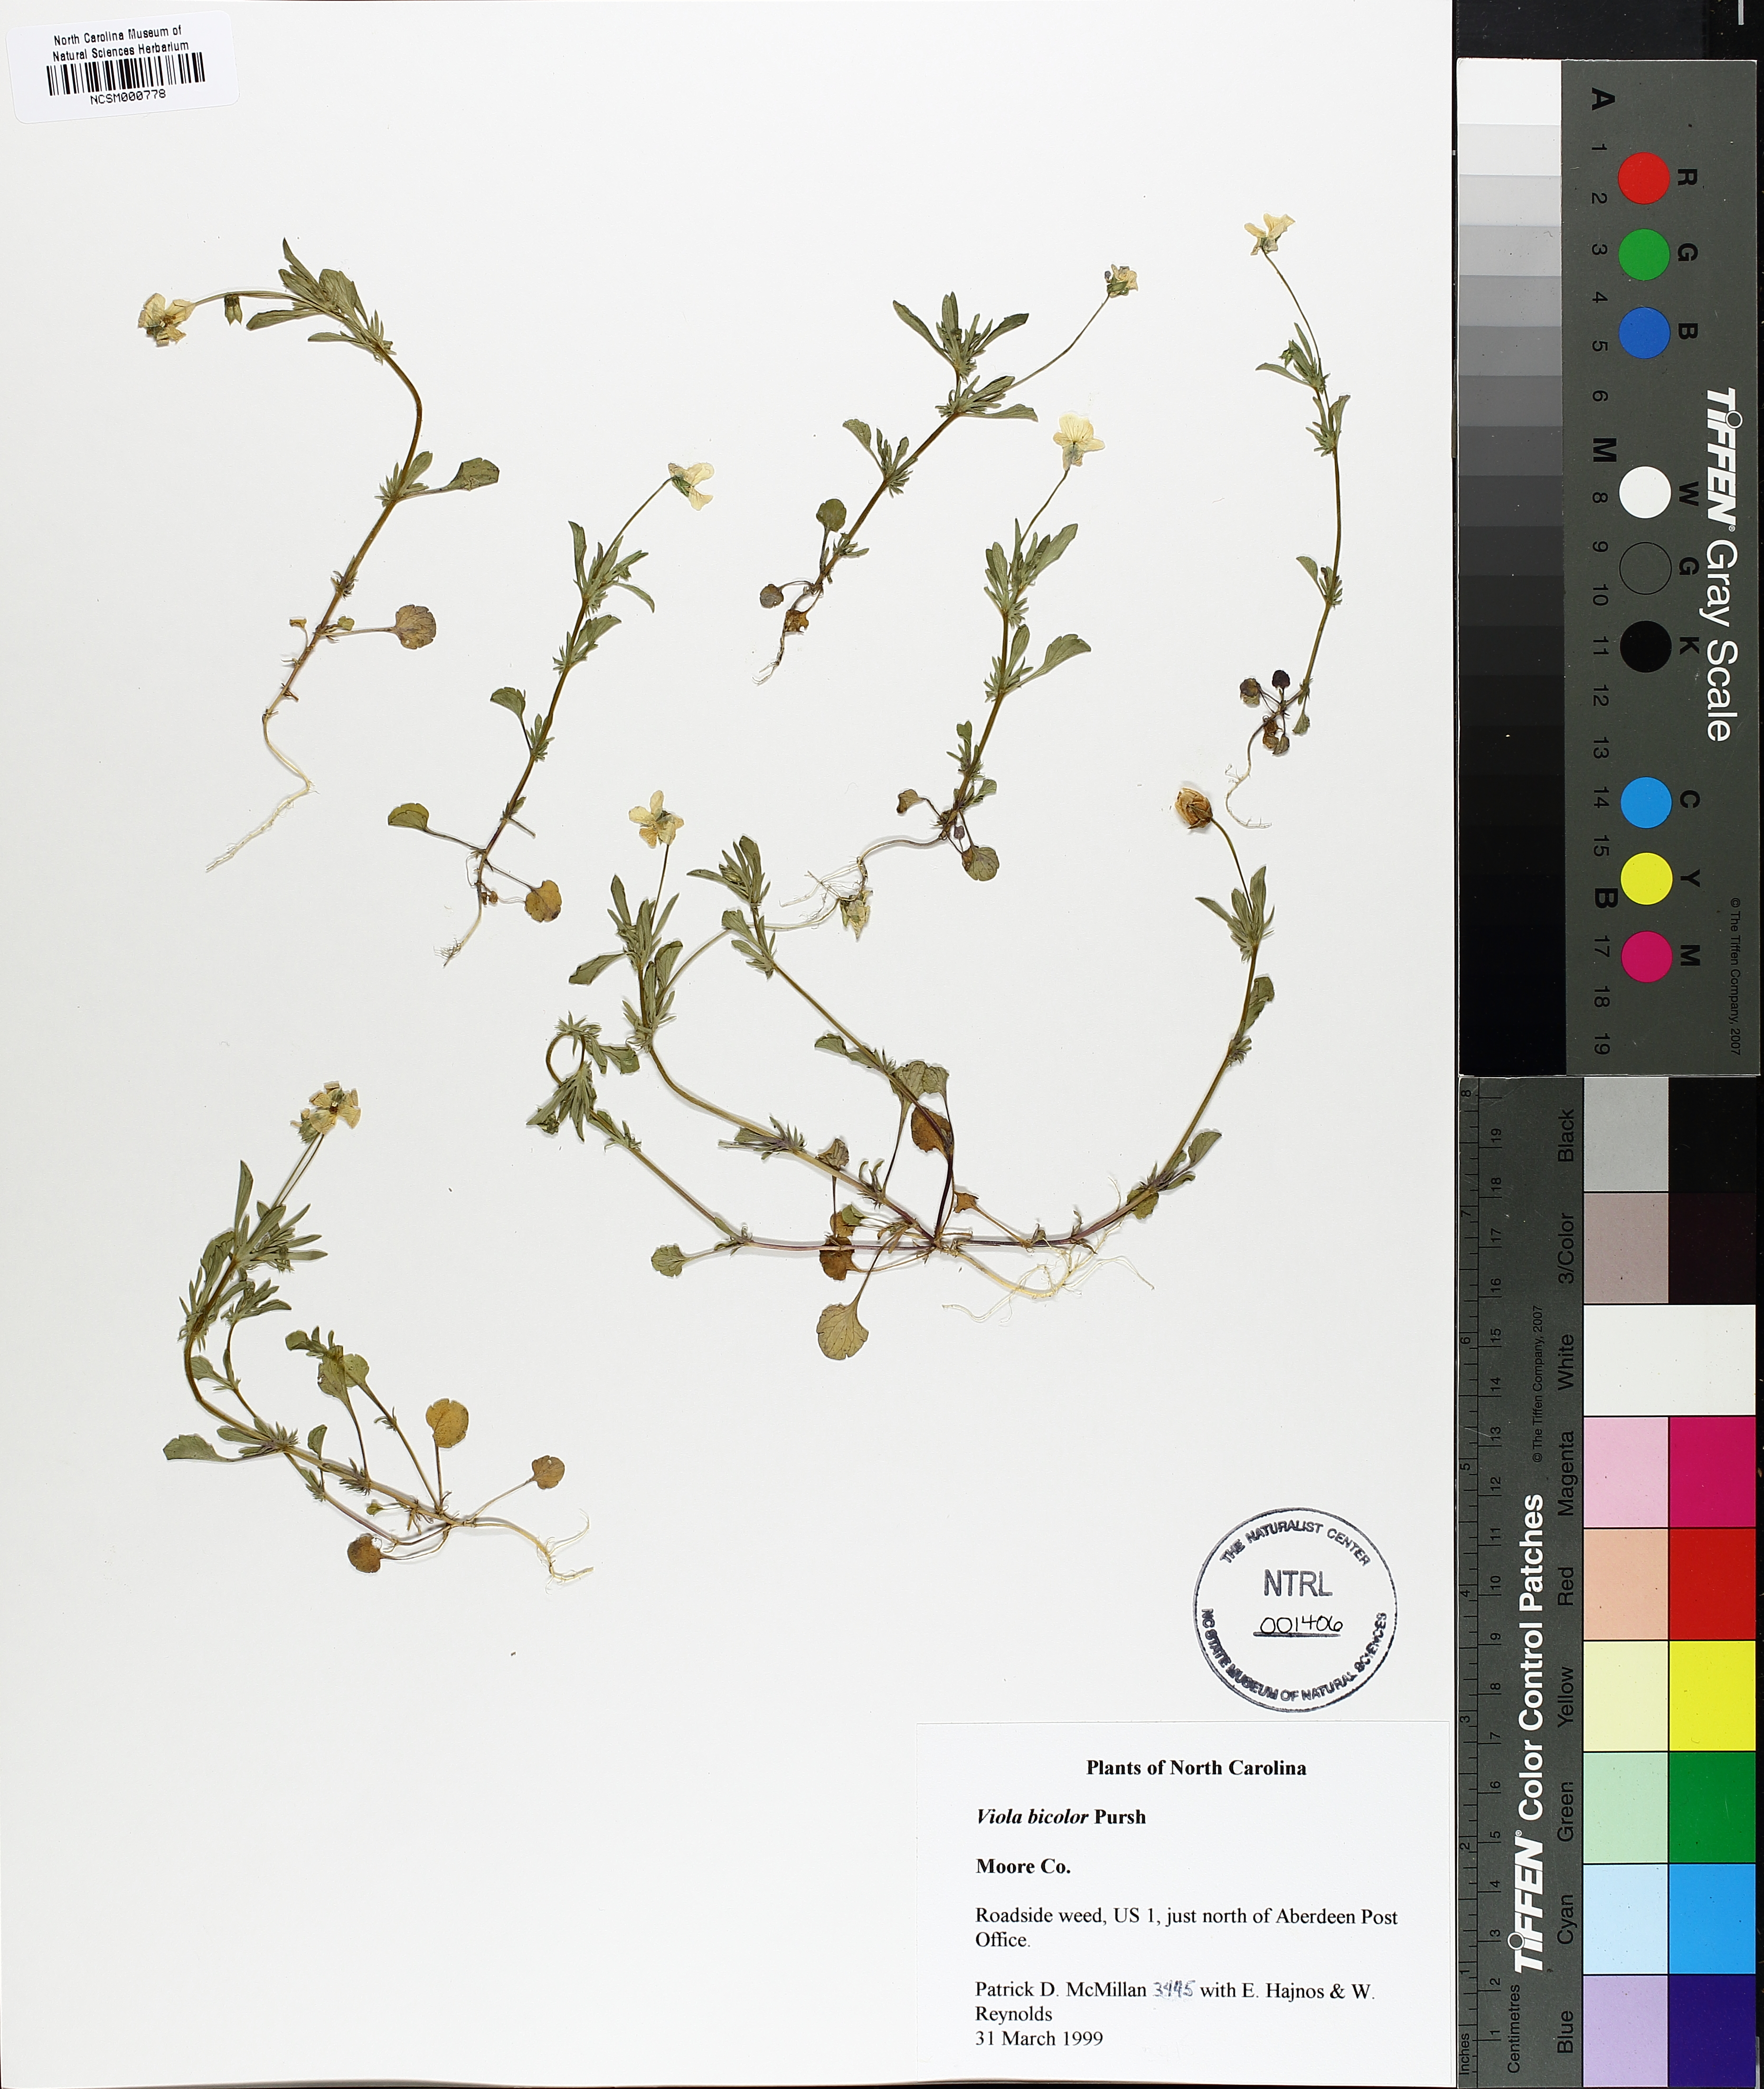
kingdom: Plantae
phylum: Tracheophyta
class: Magnoliopsida
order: Malpighiales
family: Violaceae
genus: Viola
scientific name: Viola rafinesquei
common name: American field pansy
